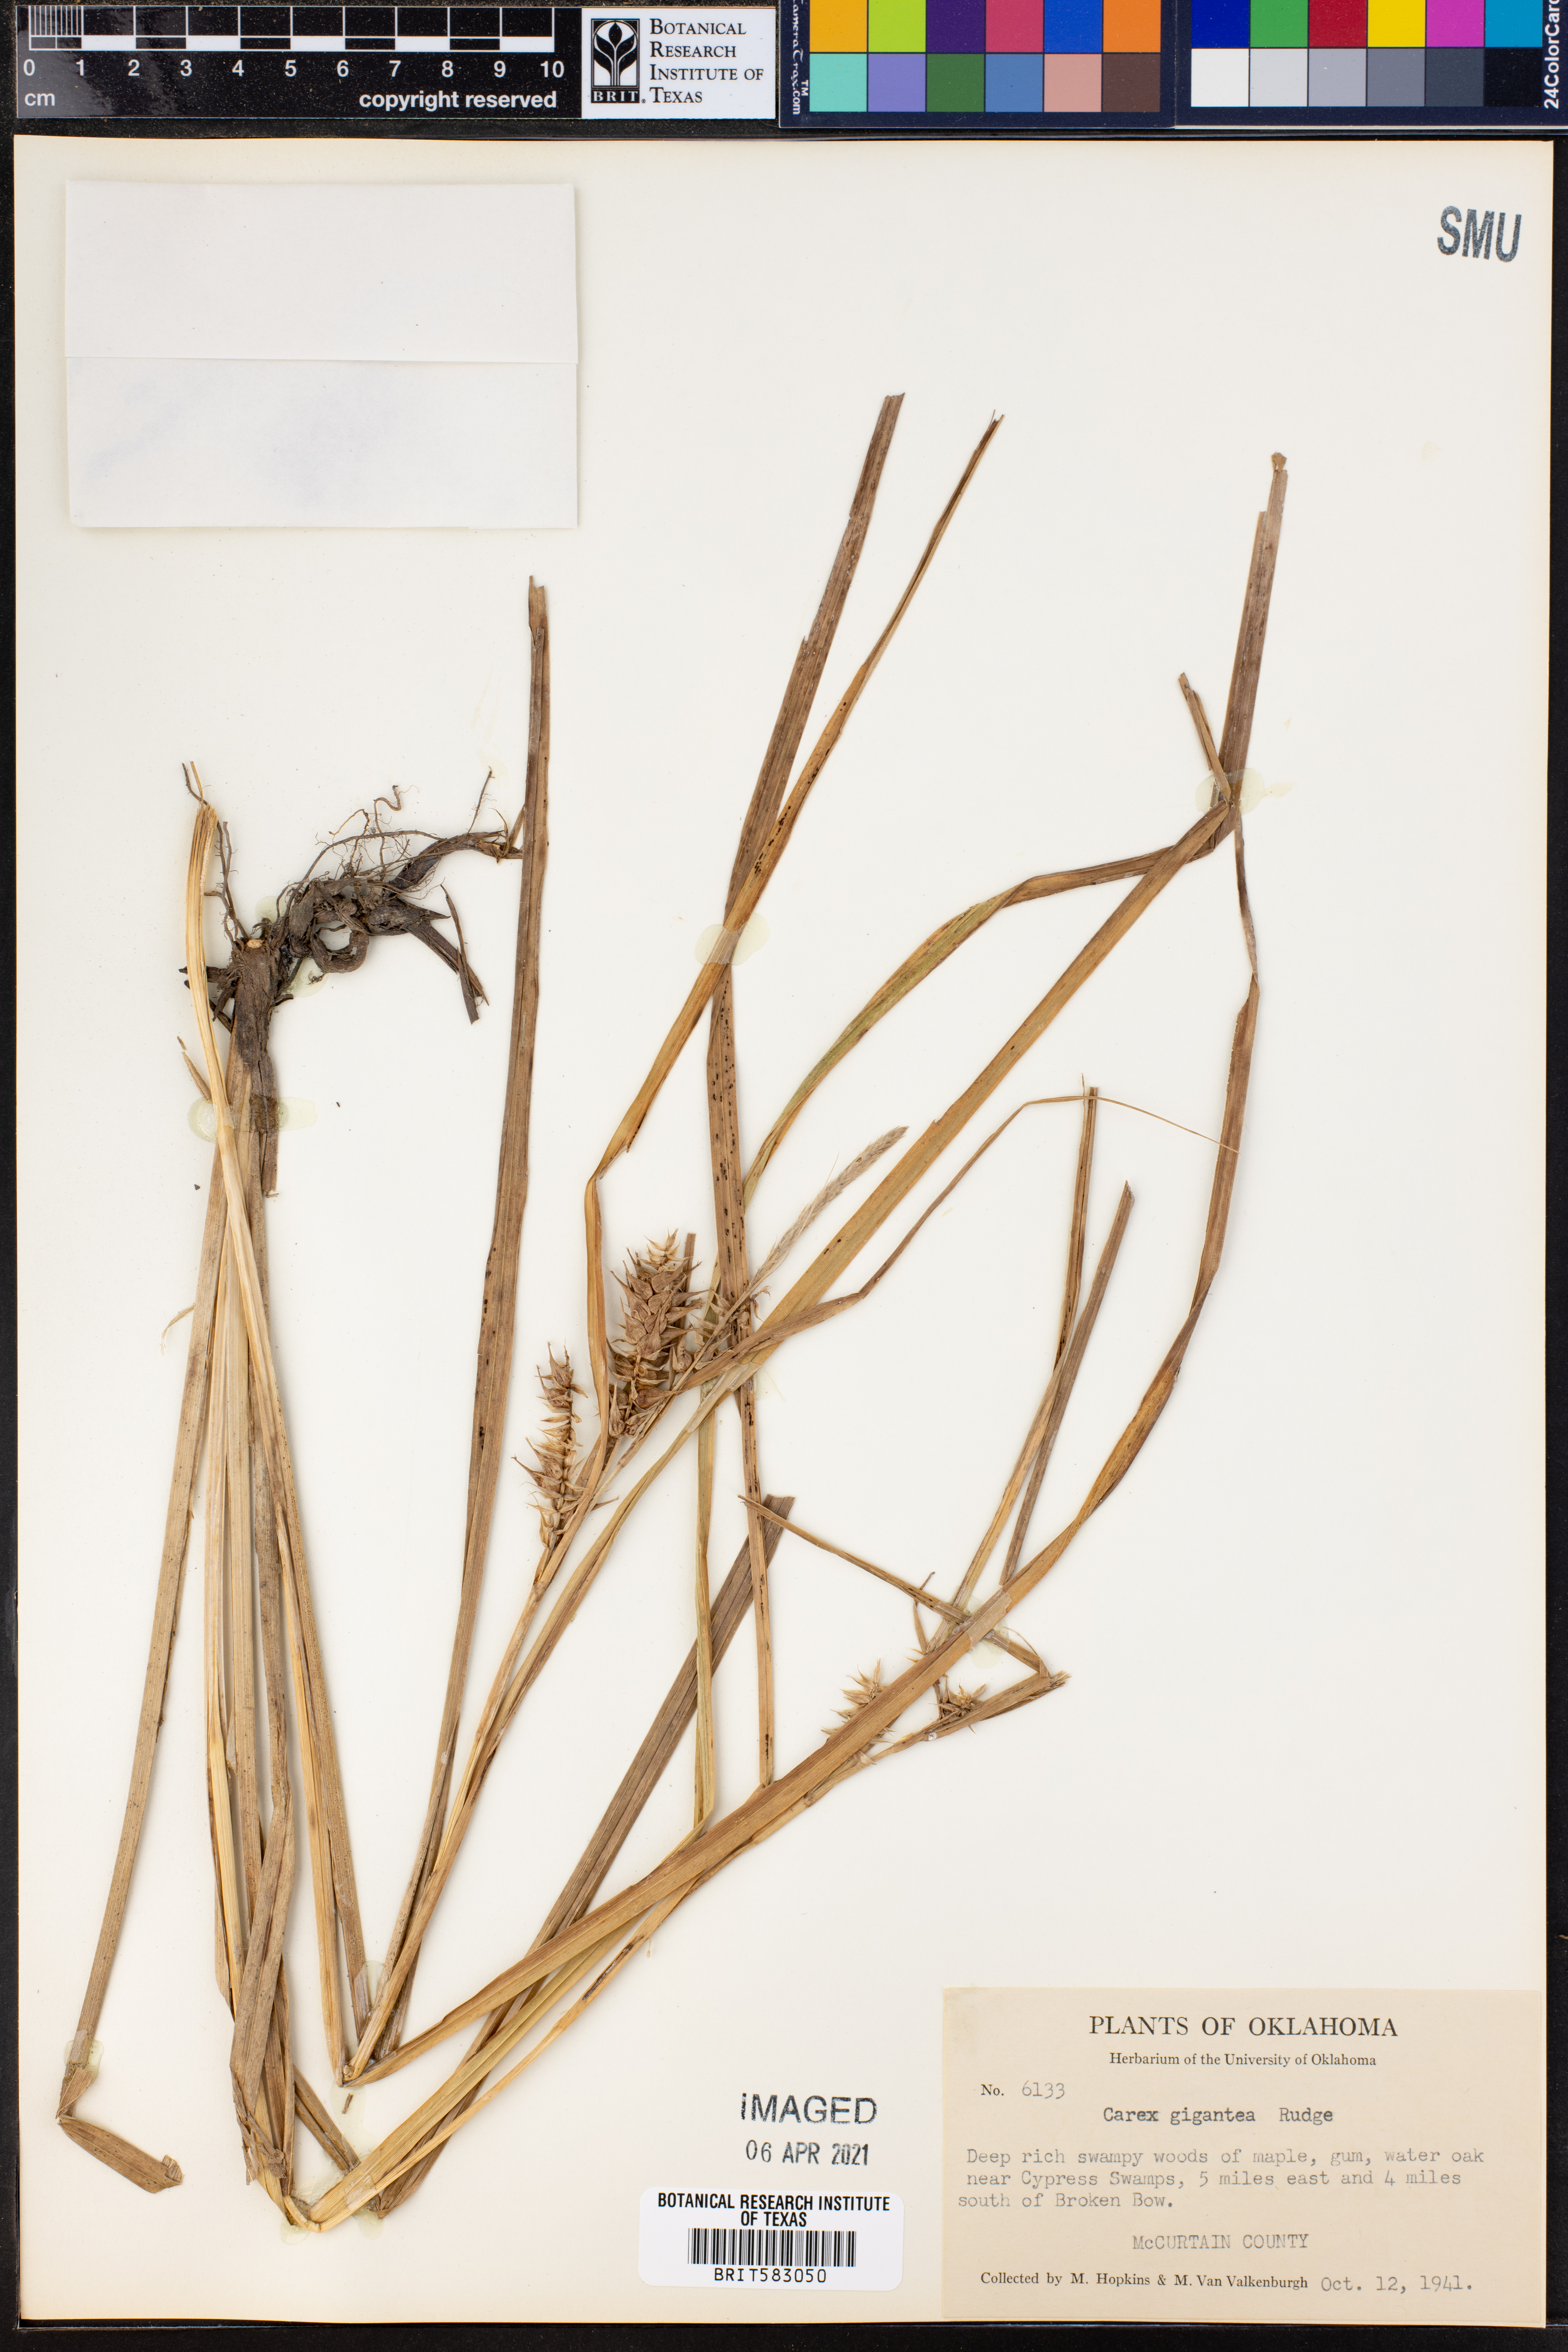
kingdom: Plantae
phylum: Tracheophyta
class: Liliopsida
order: Poales
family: Cyperaceae
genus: Carex
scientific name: Carex gigantea
